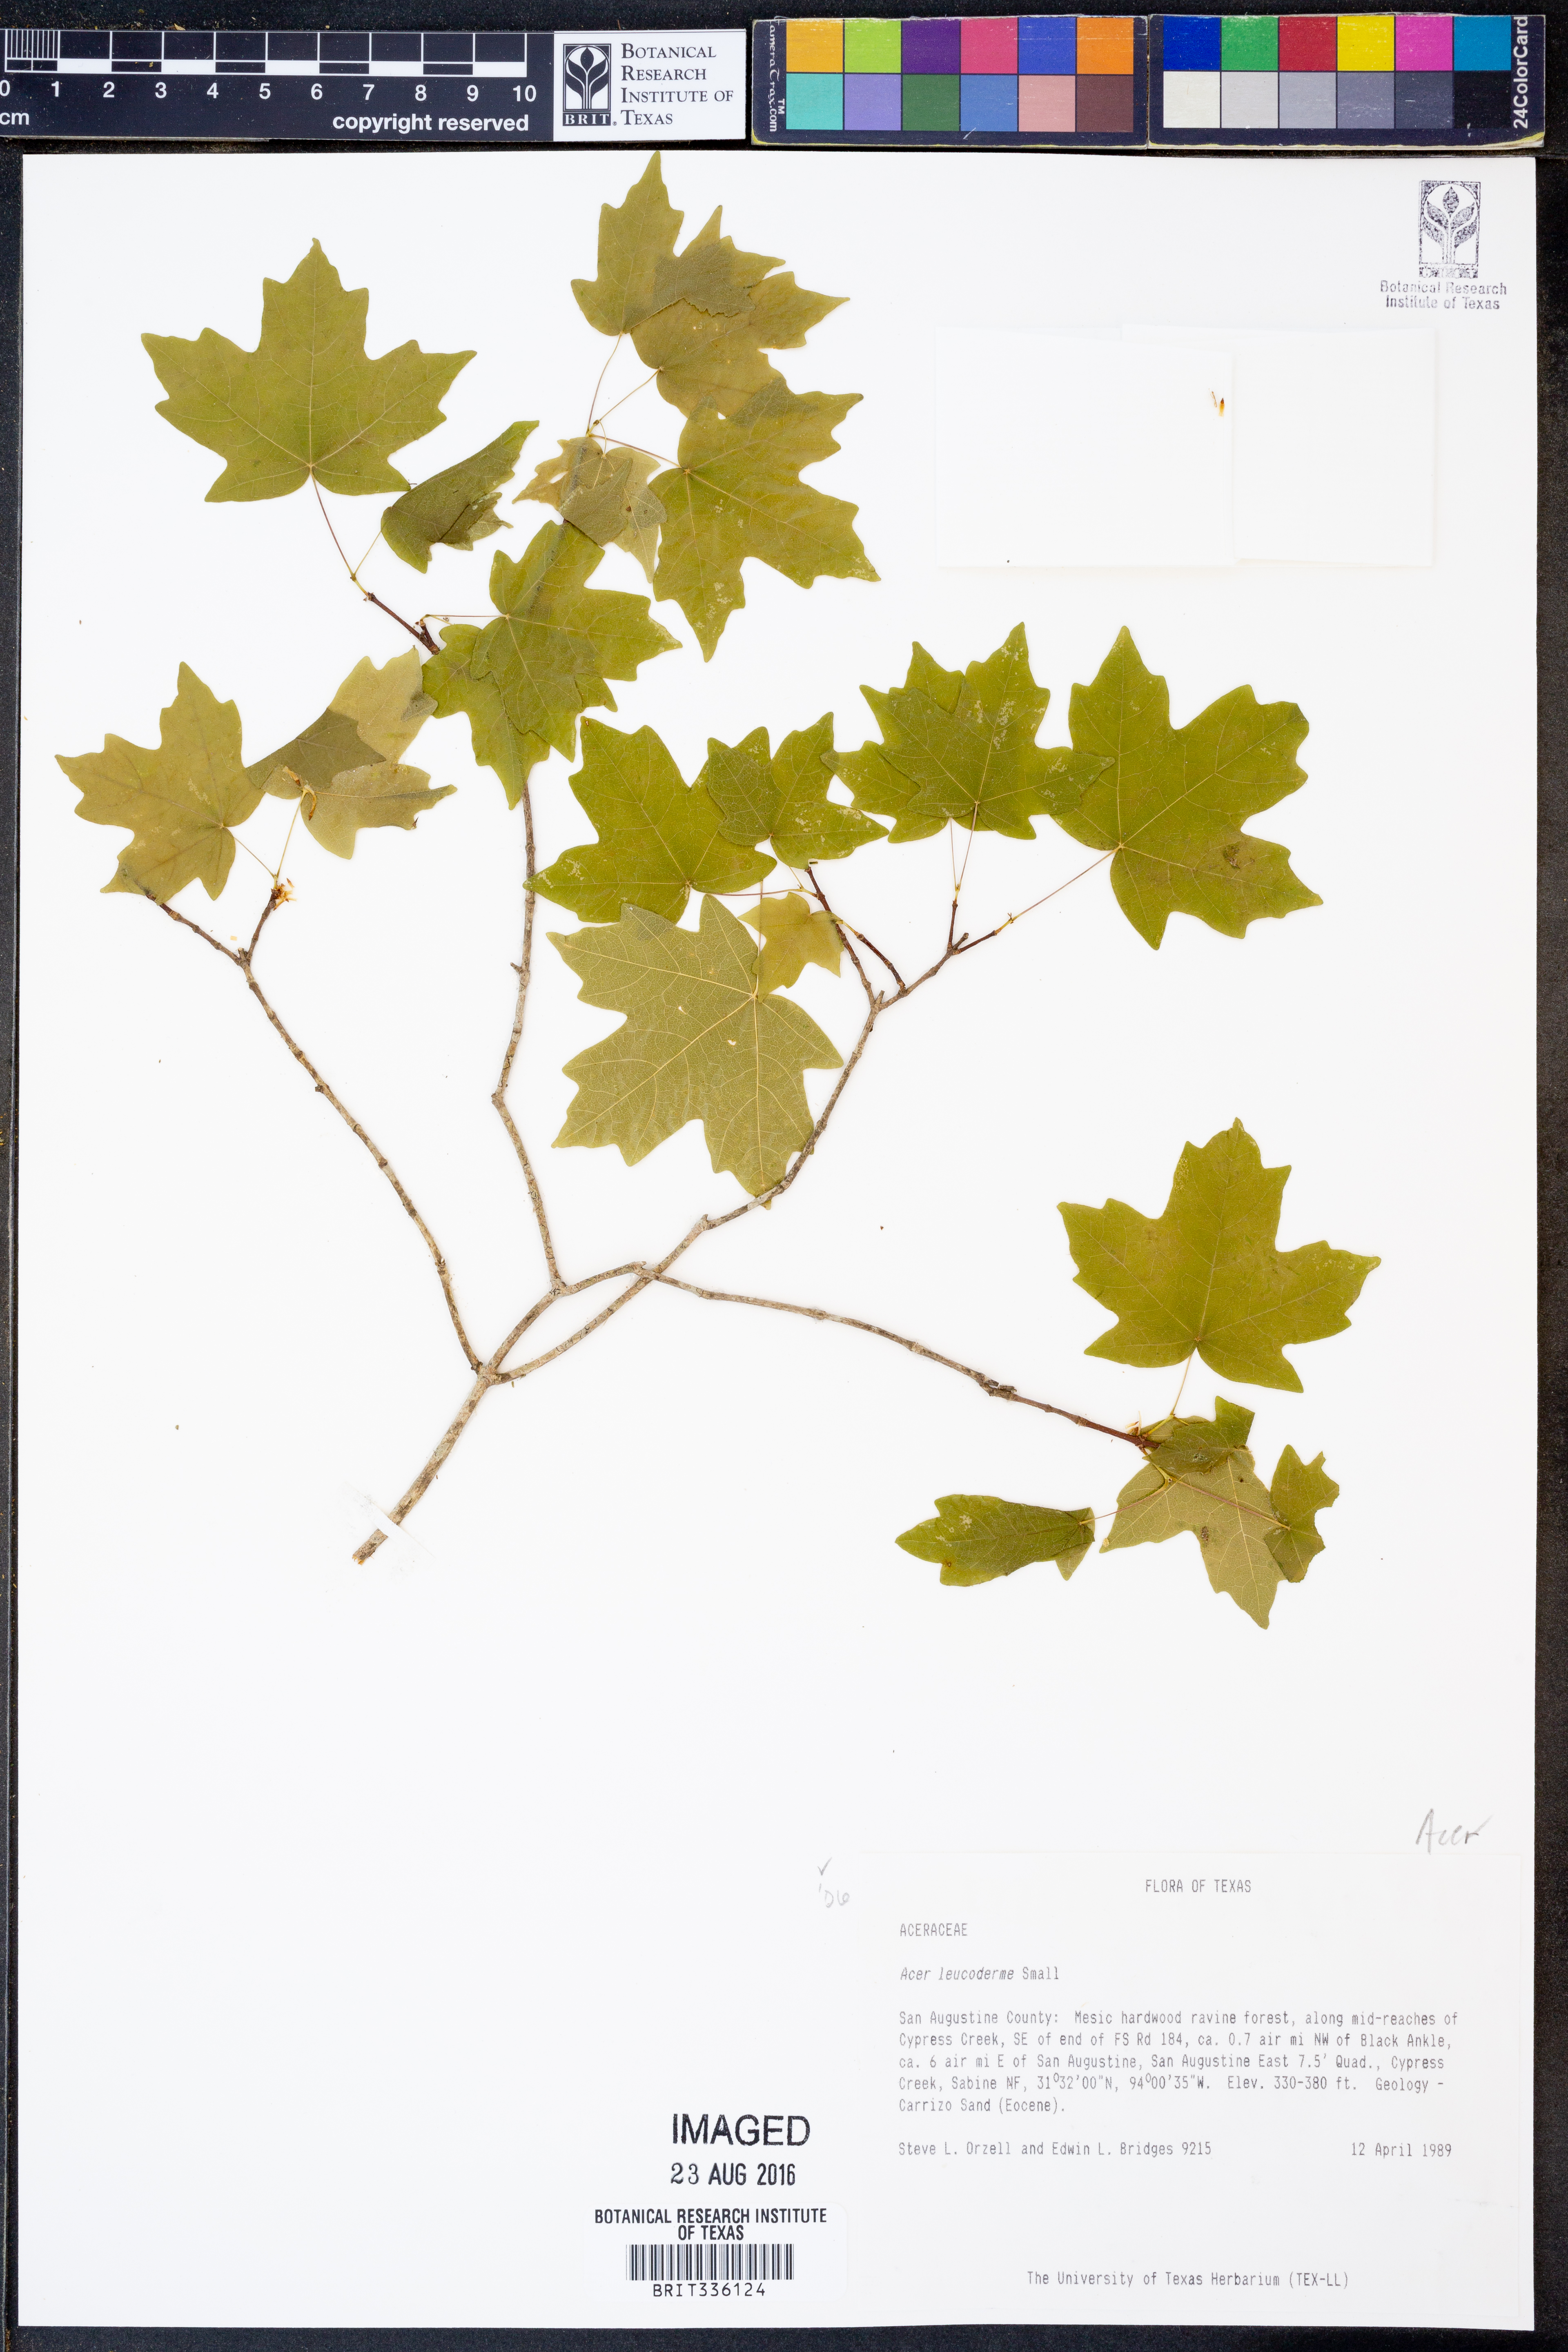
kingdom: Plantae
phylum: Tracheophyta
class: Magnoliopsida
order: Sapindales
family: Sapindaceae
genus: Acer
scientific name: Acer leucoderme
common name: Chalk maple
